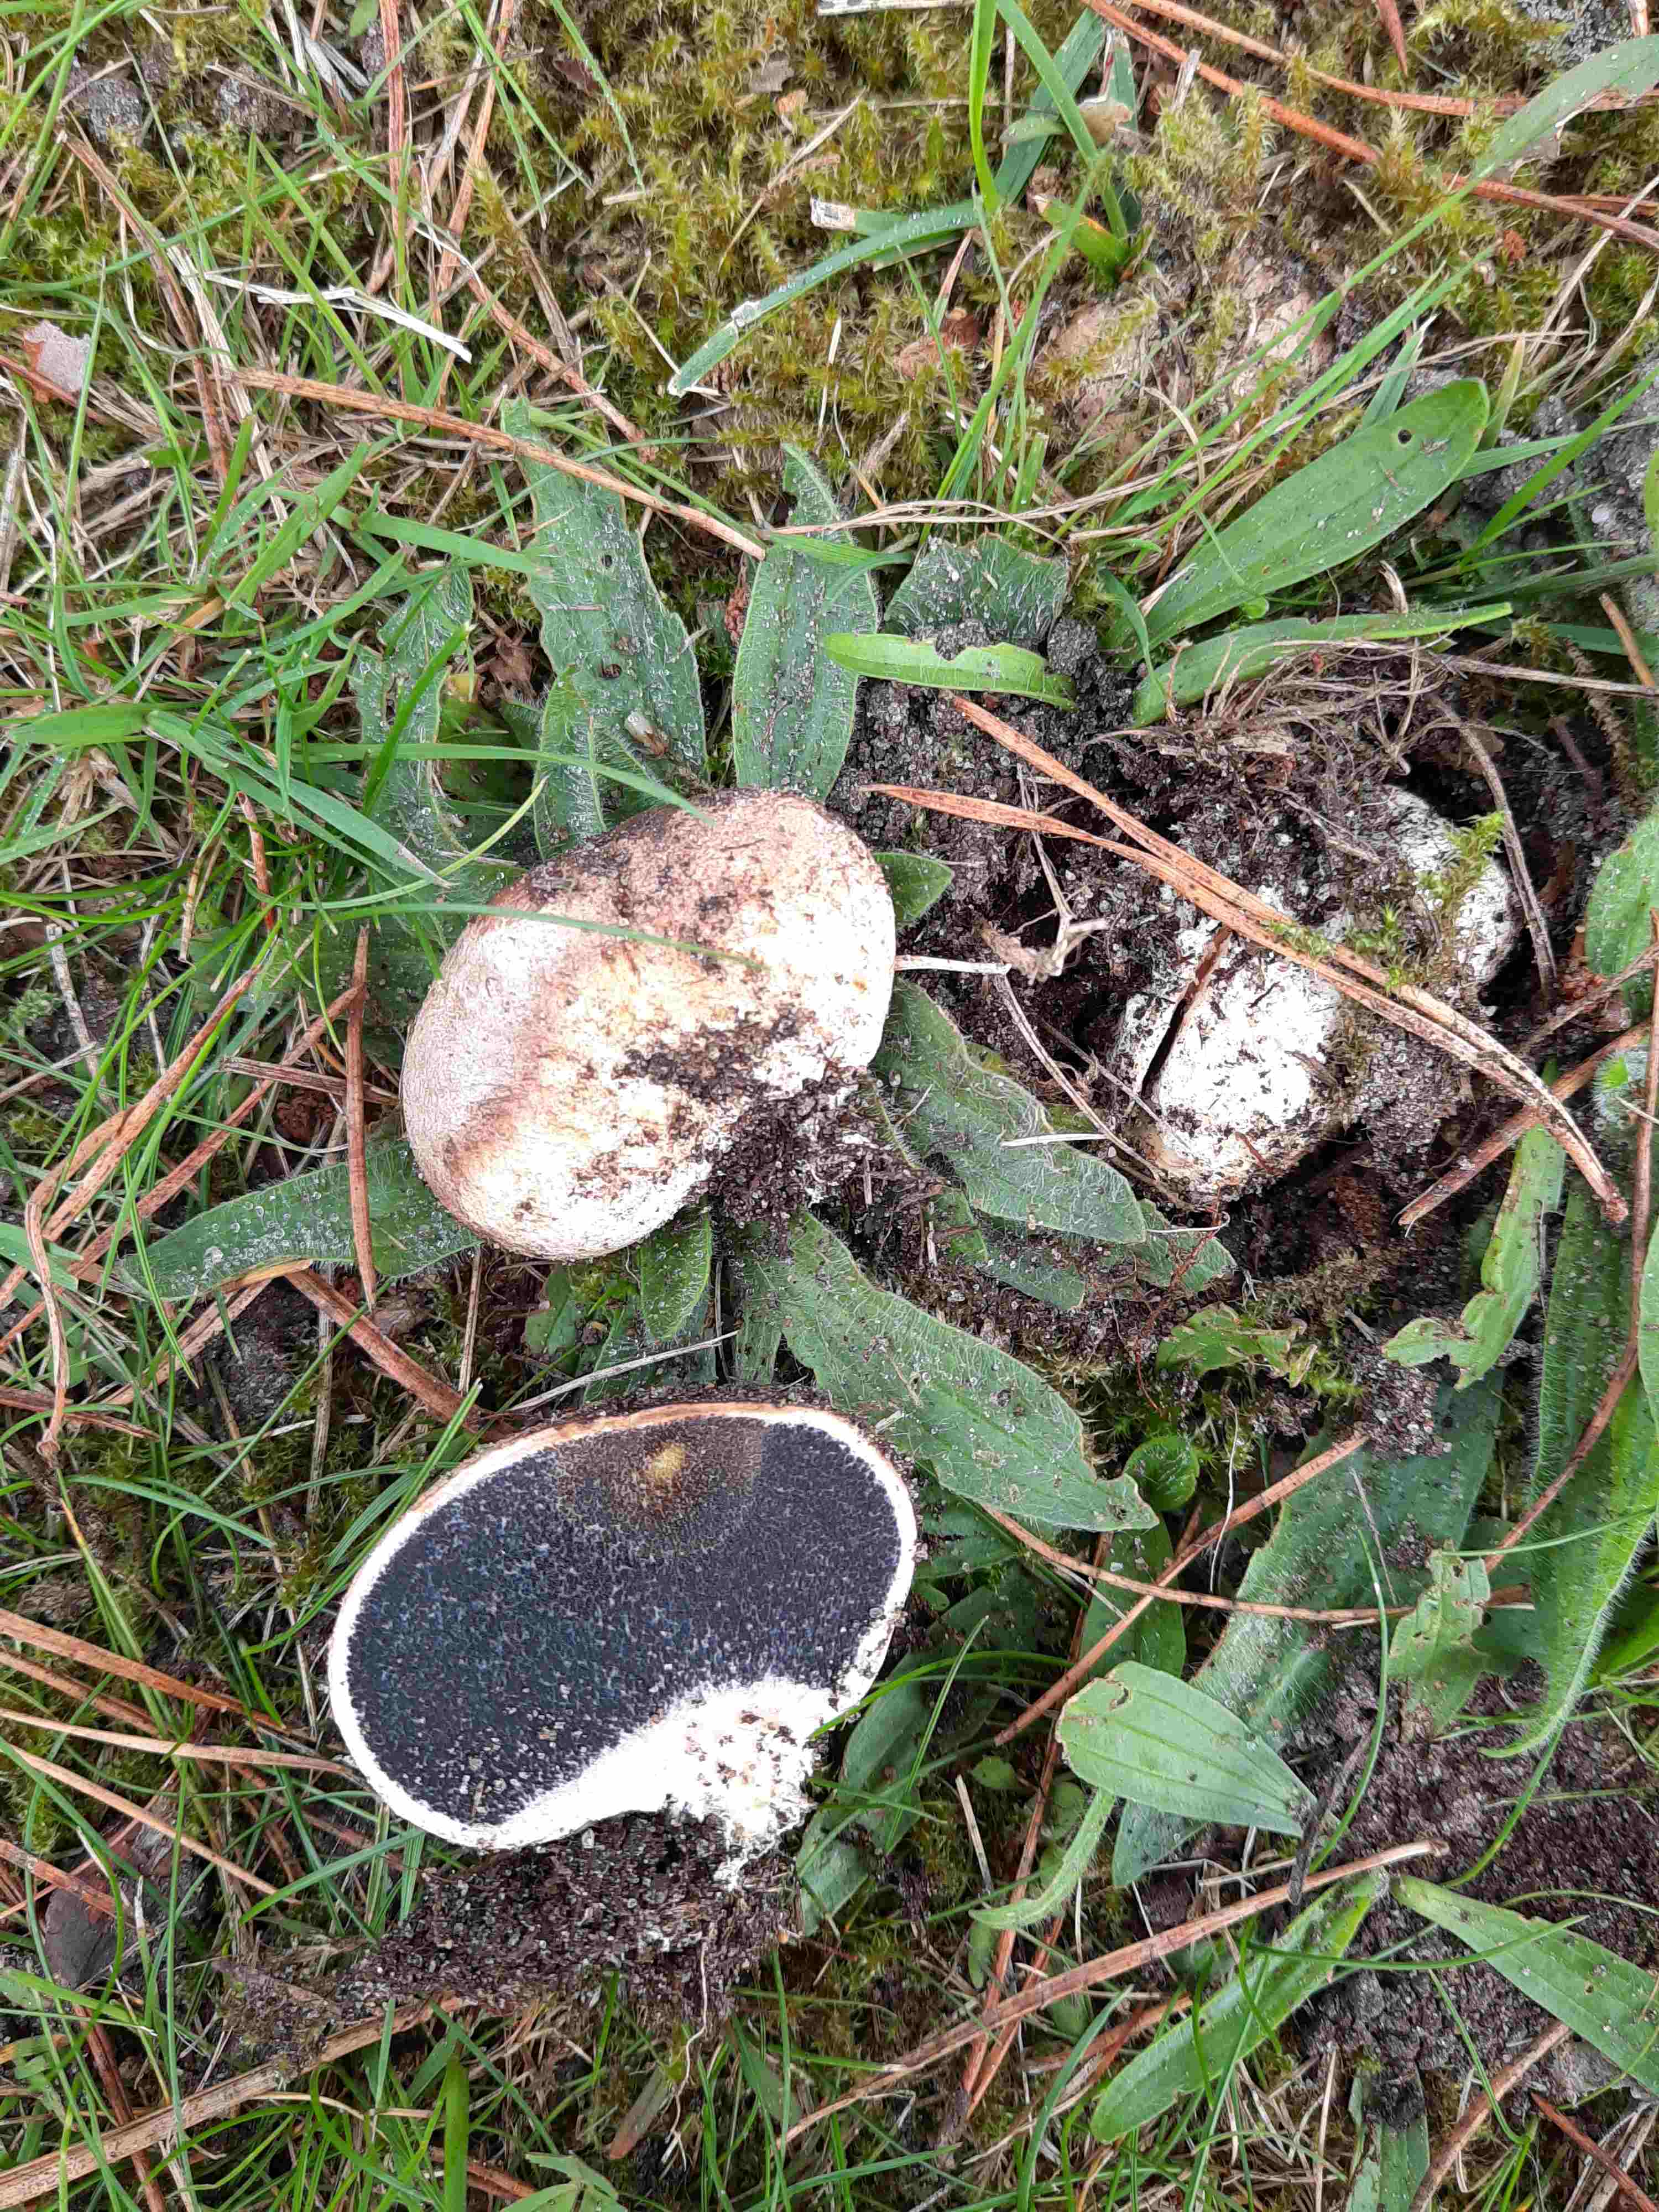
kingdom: Fungi
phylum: Basidiomycota
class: Agaricomycetes
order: Boletales
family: Sclerodermataceae
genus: Scleroderma
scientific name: Scleroderma
